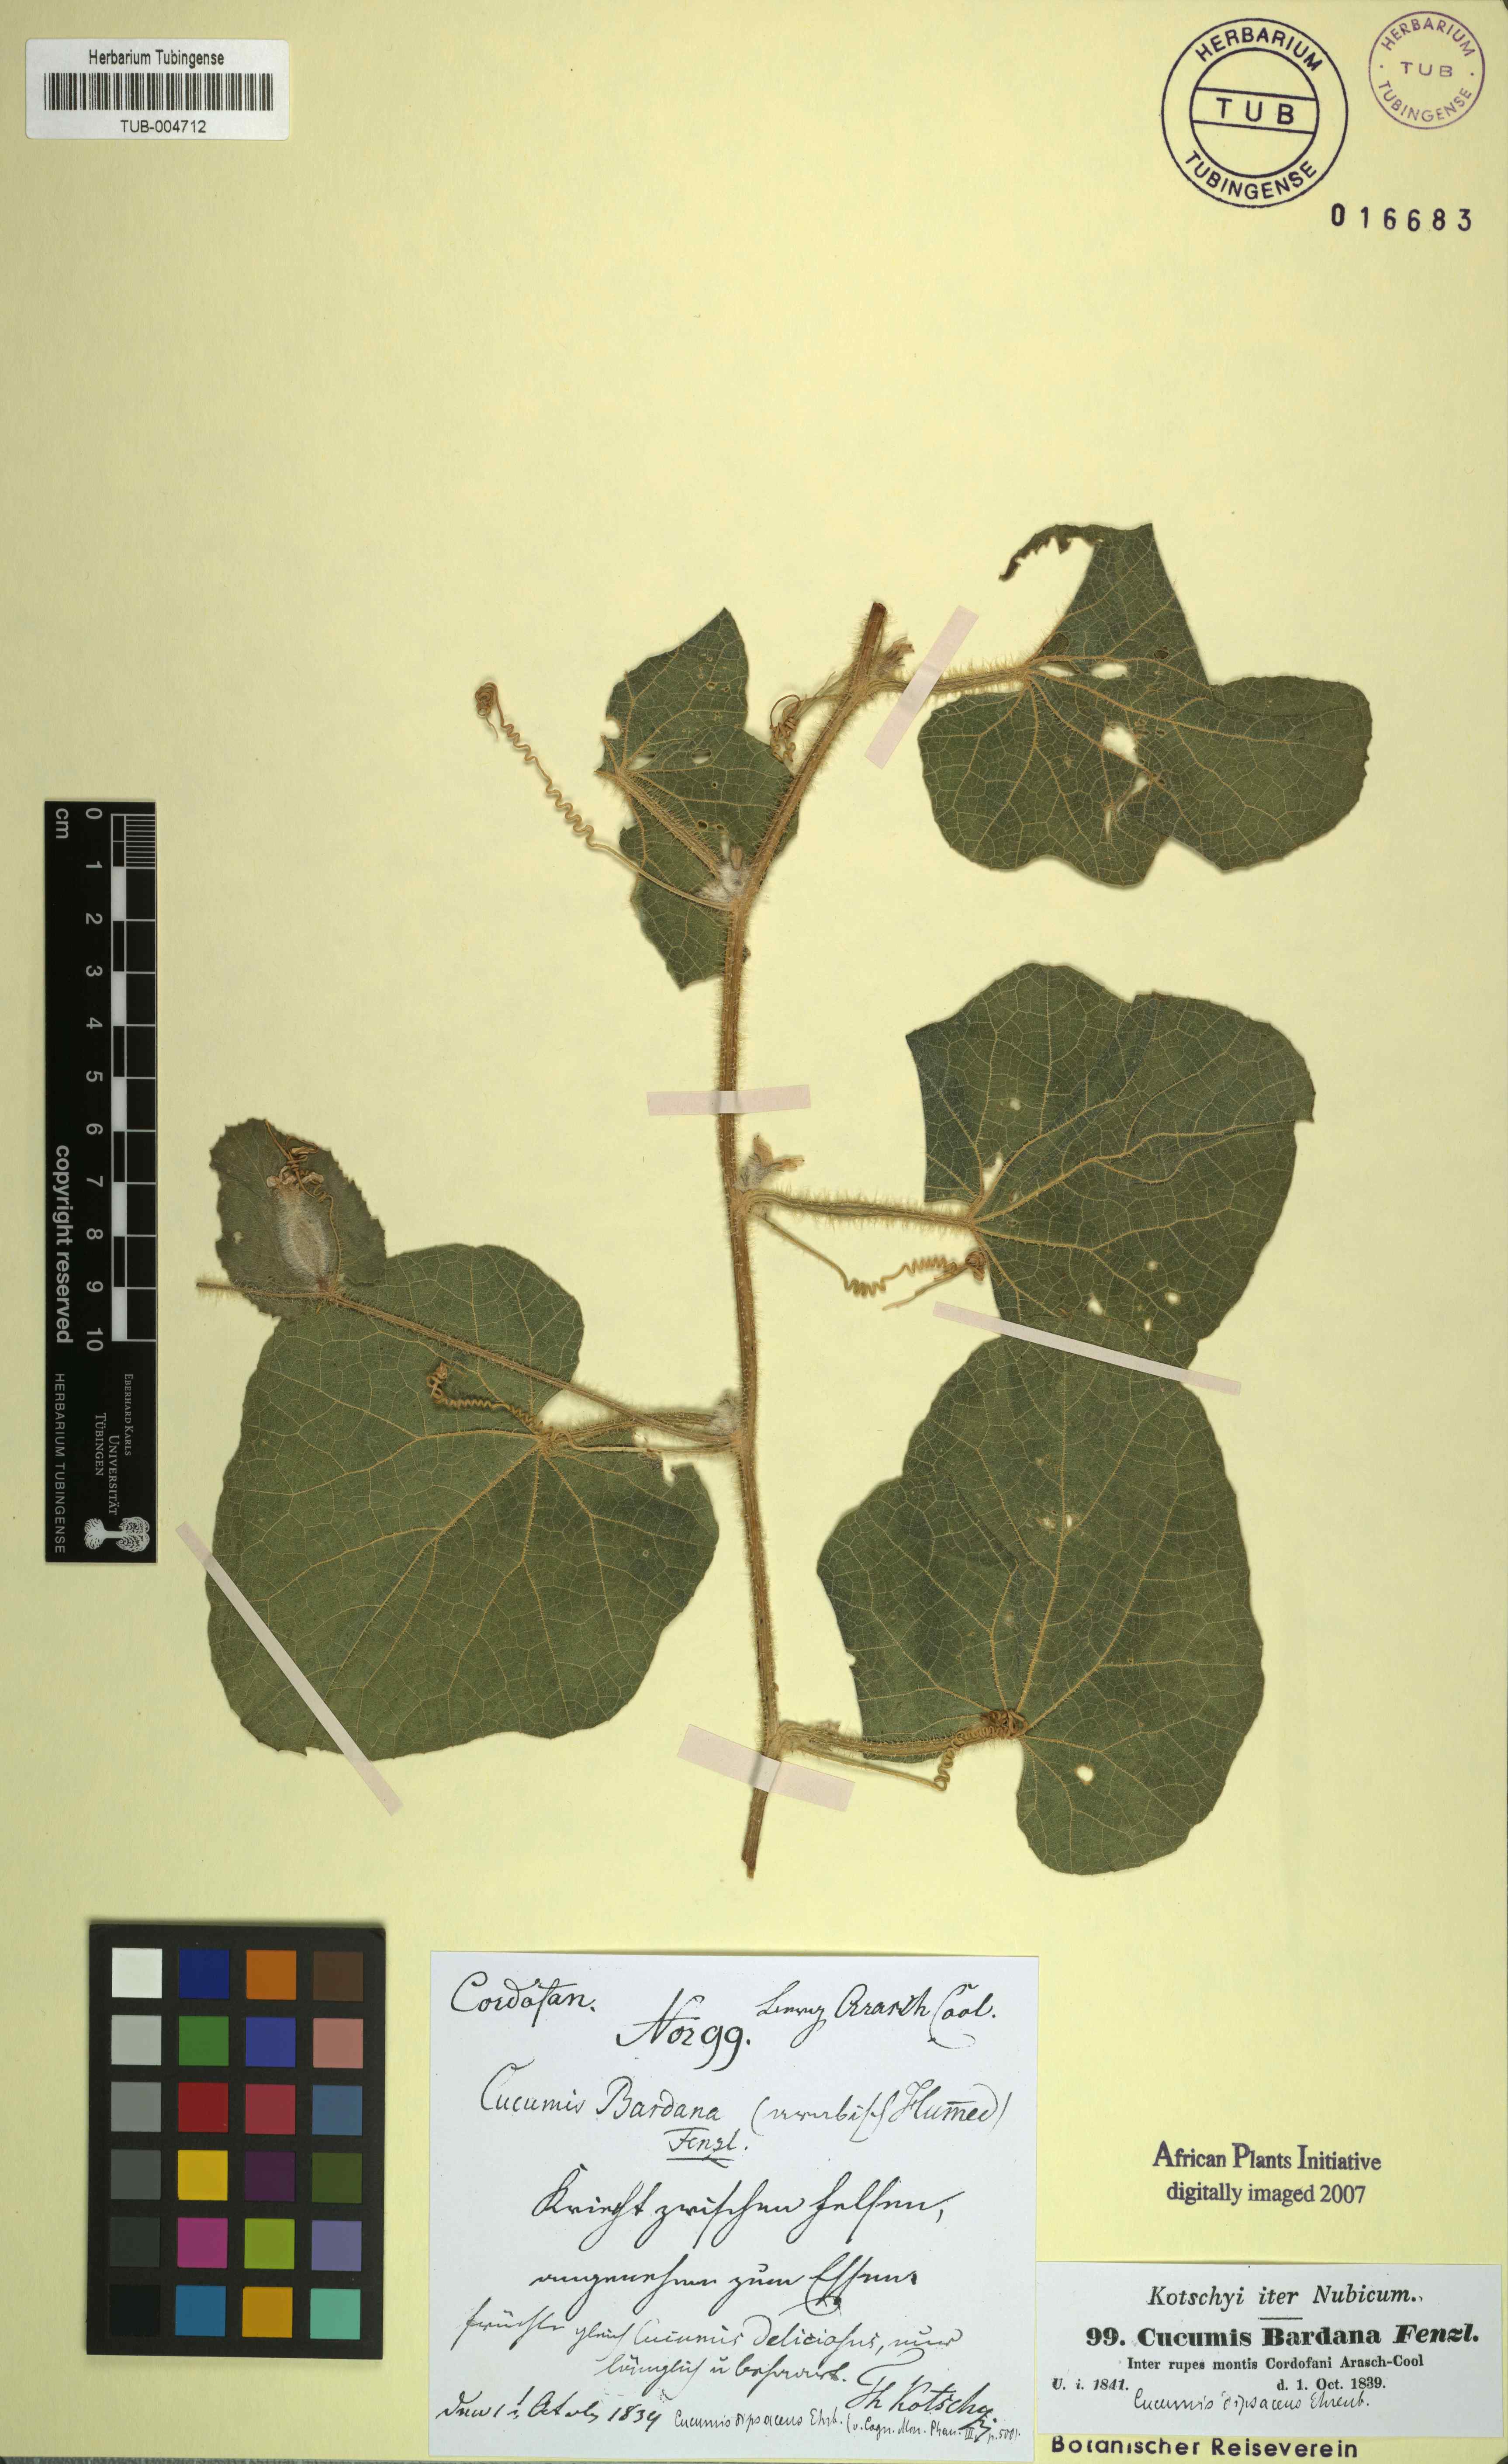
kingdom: Plantae
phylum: Tracheophyta
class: Magnoliopsida
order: Cucurbitales
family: Cucurbitaceae
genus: Cucumis
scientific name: Cucumis dipsaceus
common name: Hedgehog gourd
